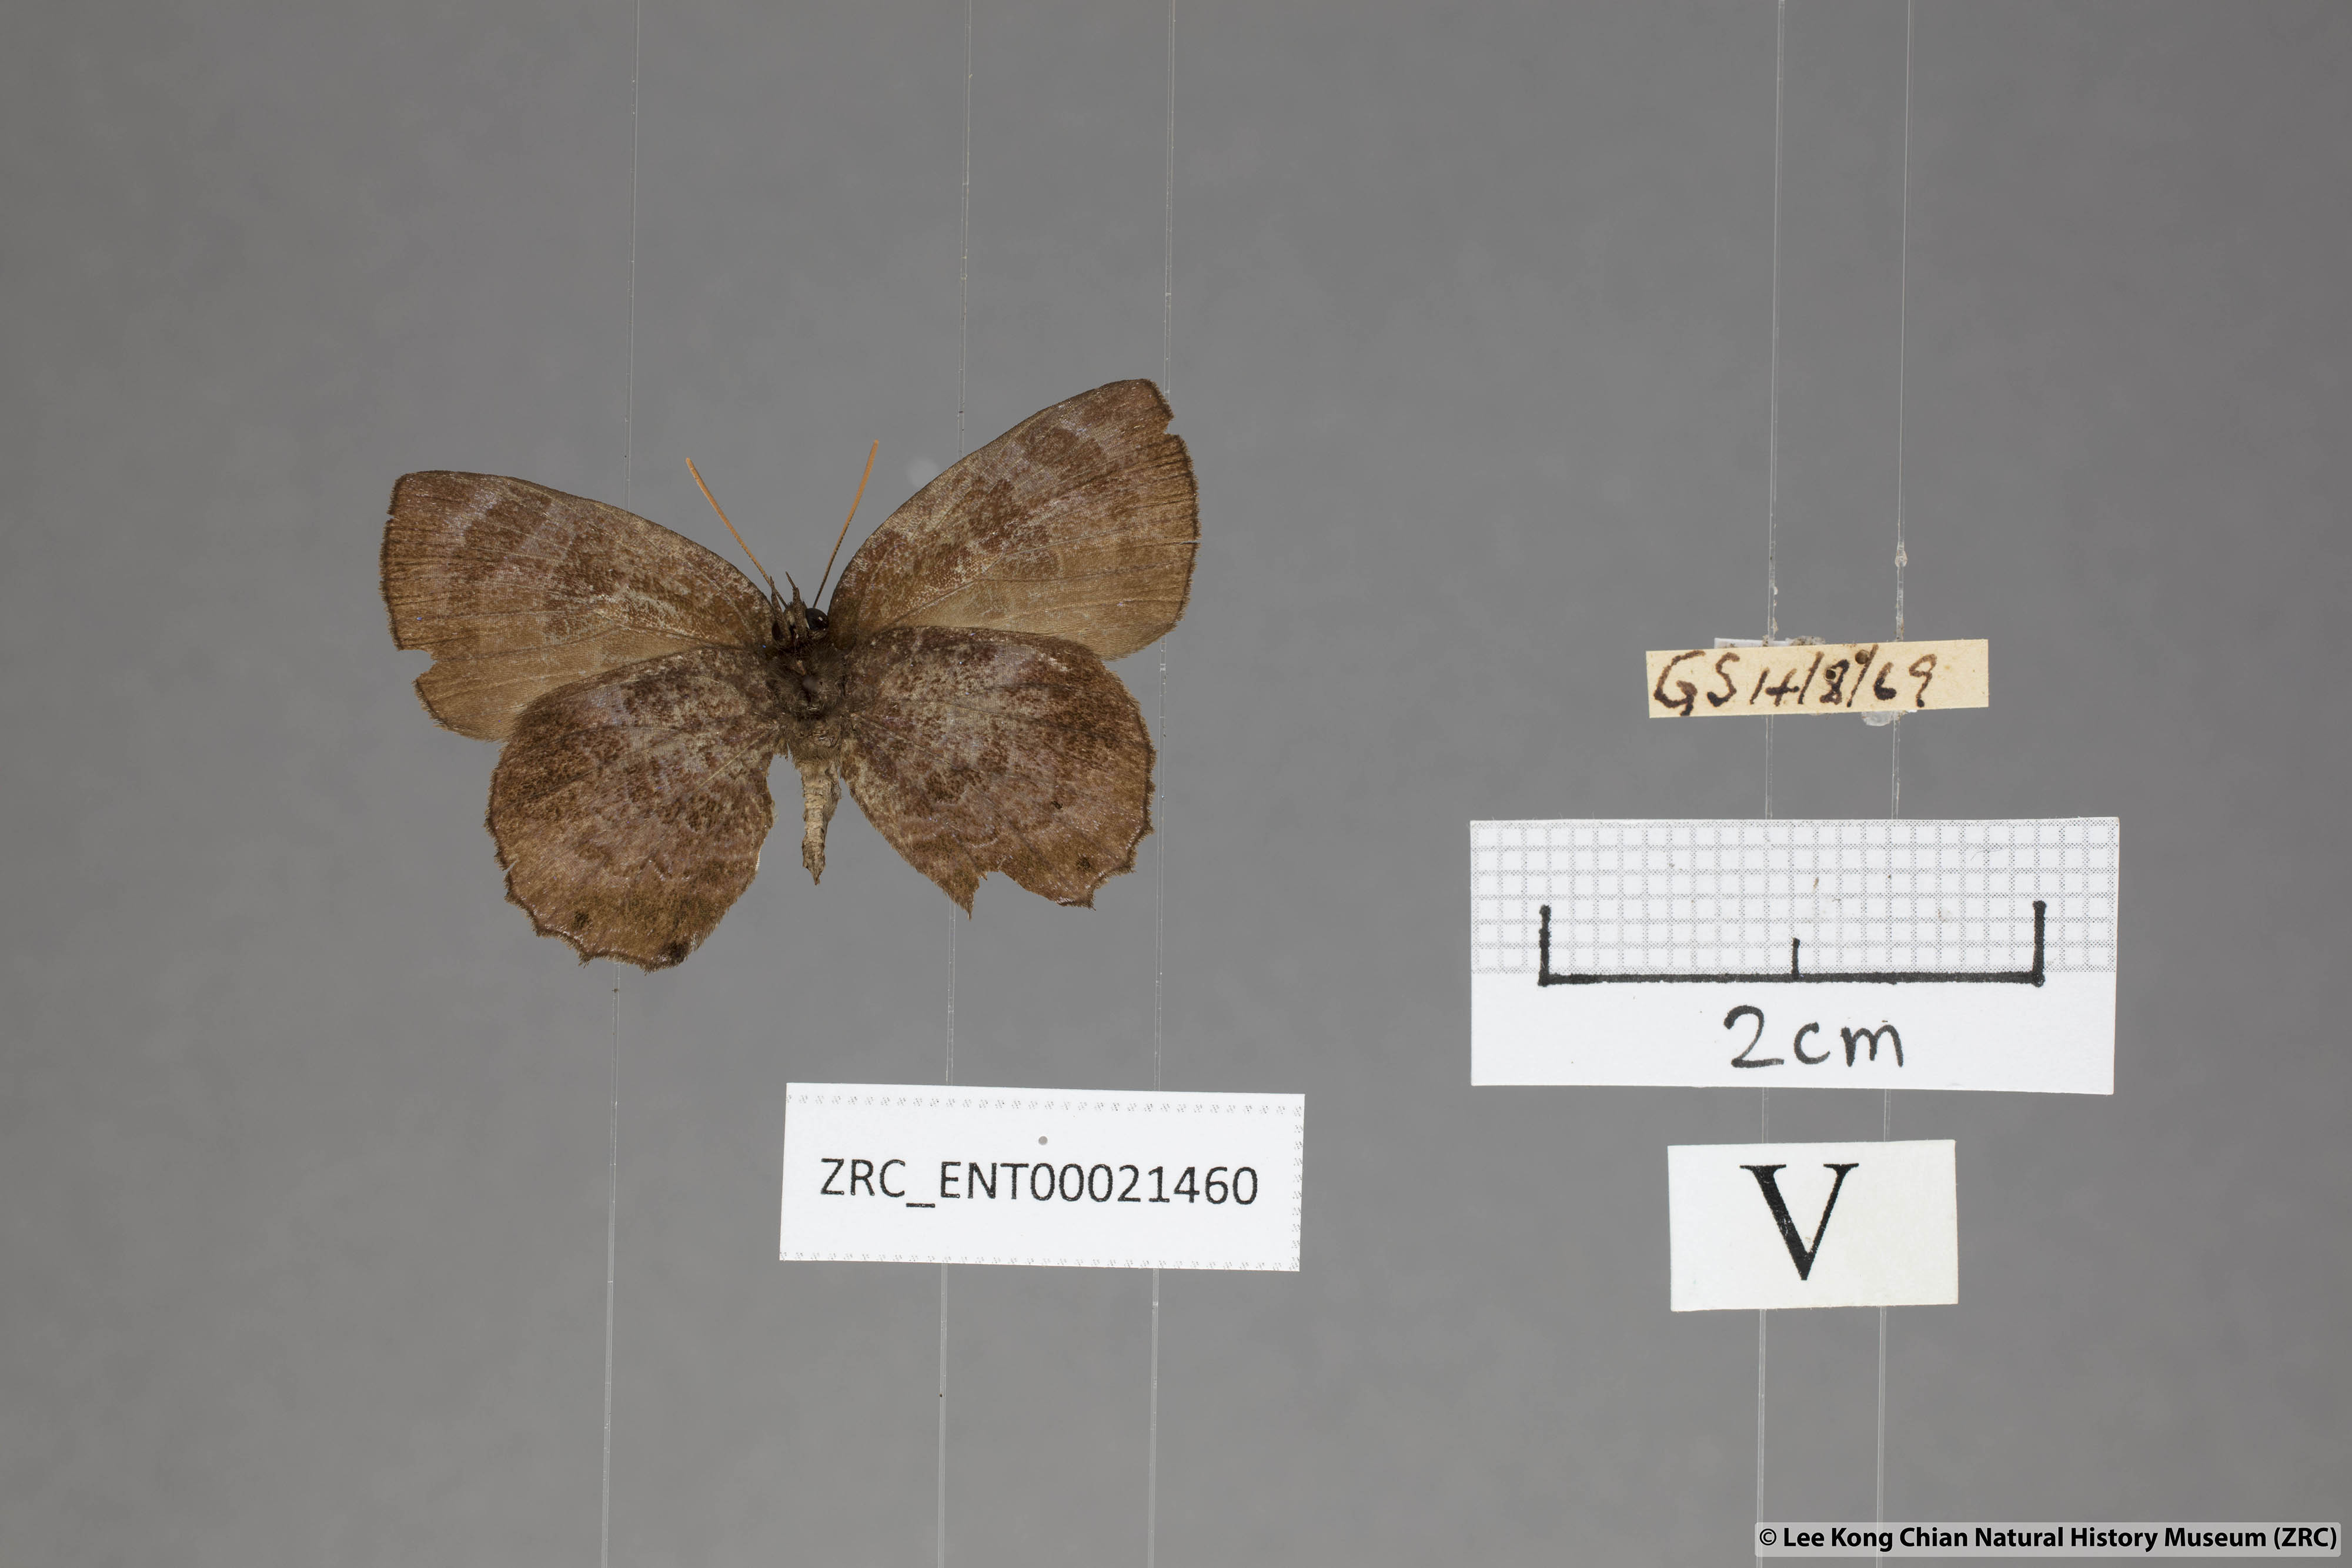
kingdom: Animalia
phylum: Arthropoda
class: Insecta
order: Lepidoptera
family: Lycaenidae
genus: Flos
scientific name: Flos
